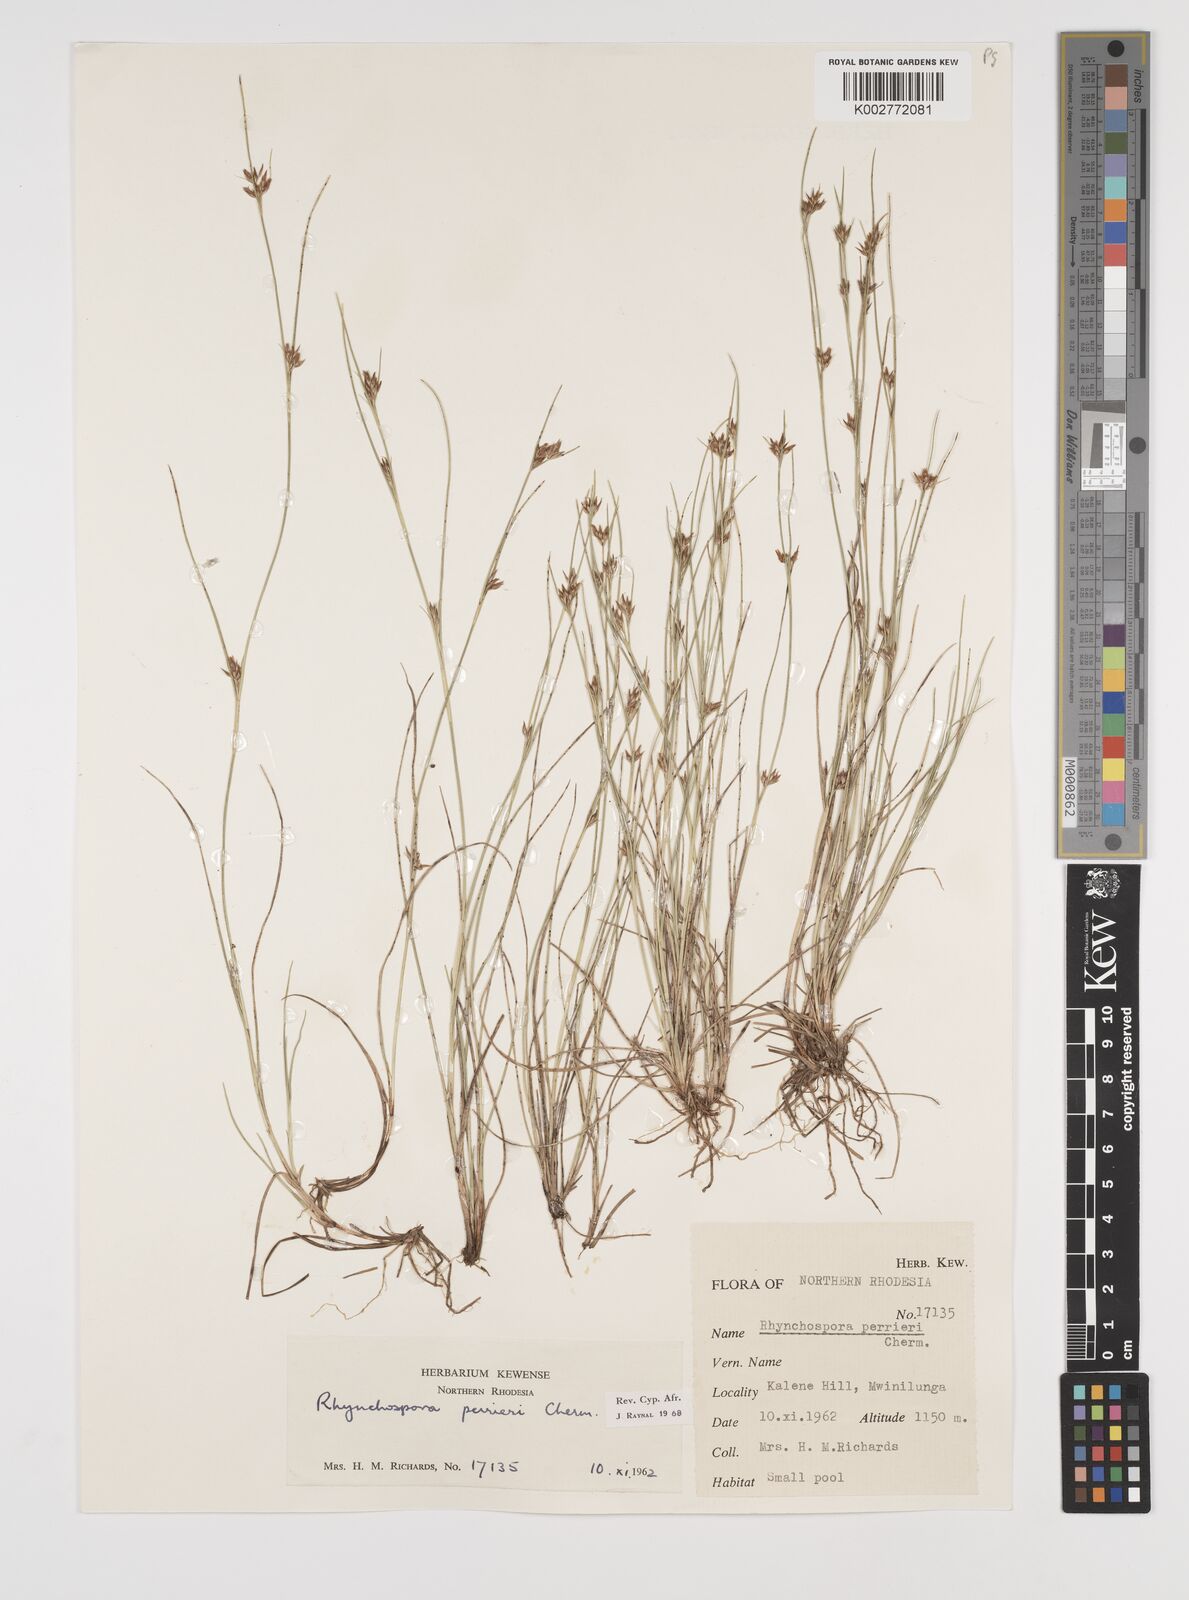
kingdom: Plantae
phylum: Tracheophyta
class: Liliopsida
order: Poales
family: Cyperaceae
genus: Rhynchospora
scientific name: Rhynchospora perrieri
